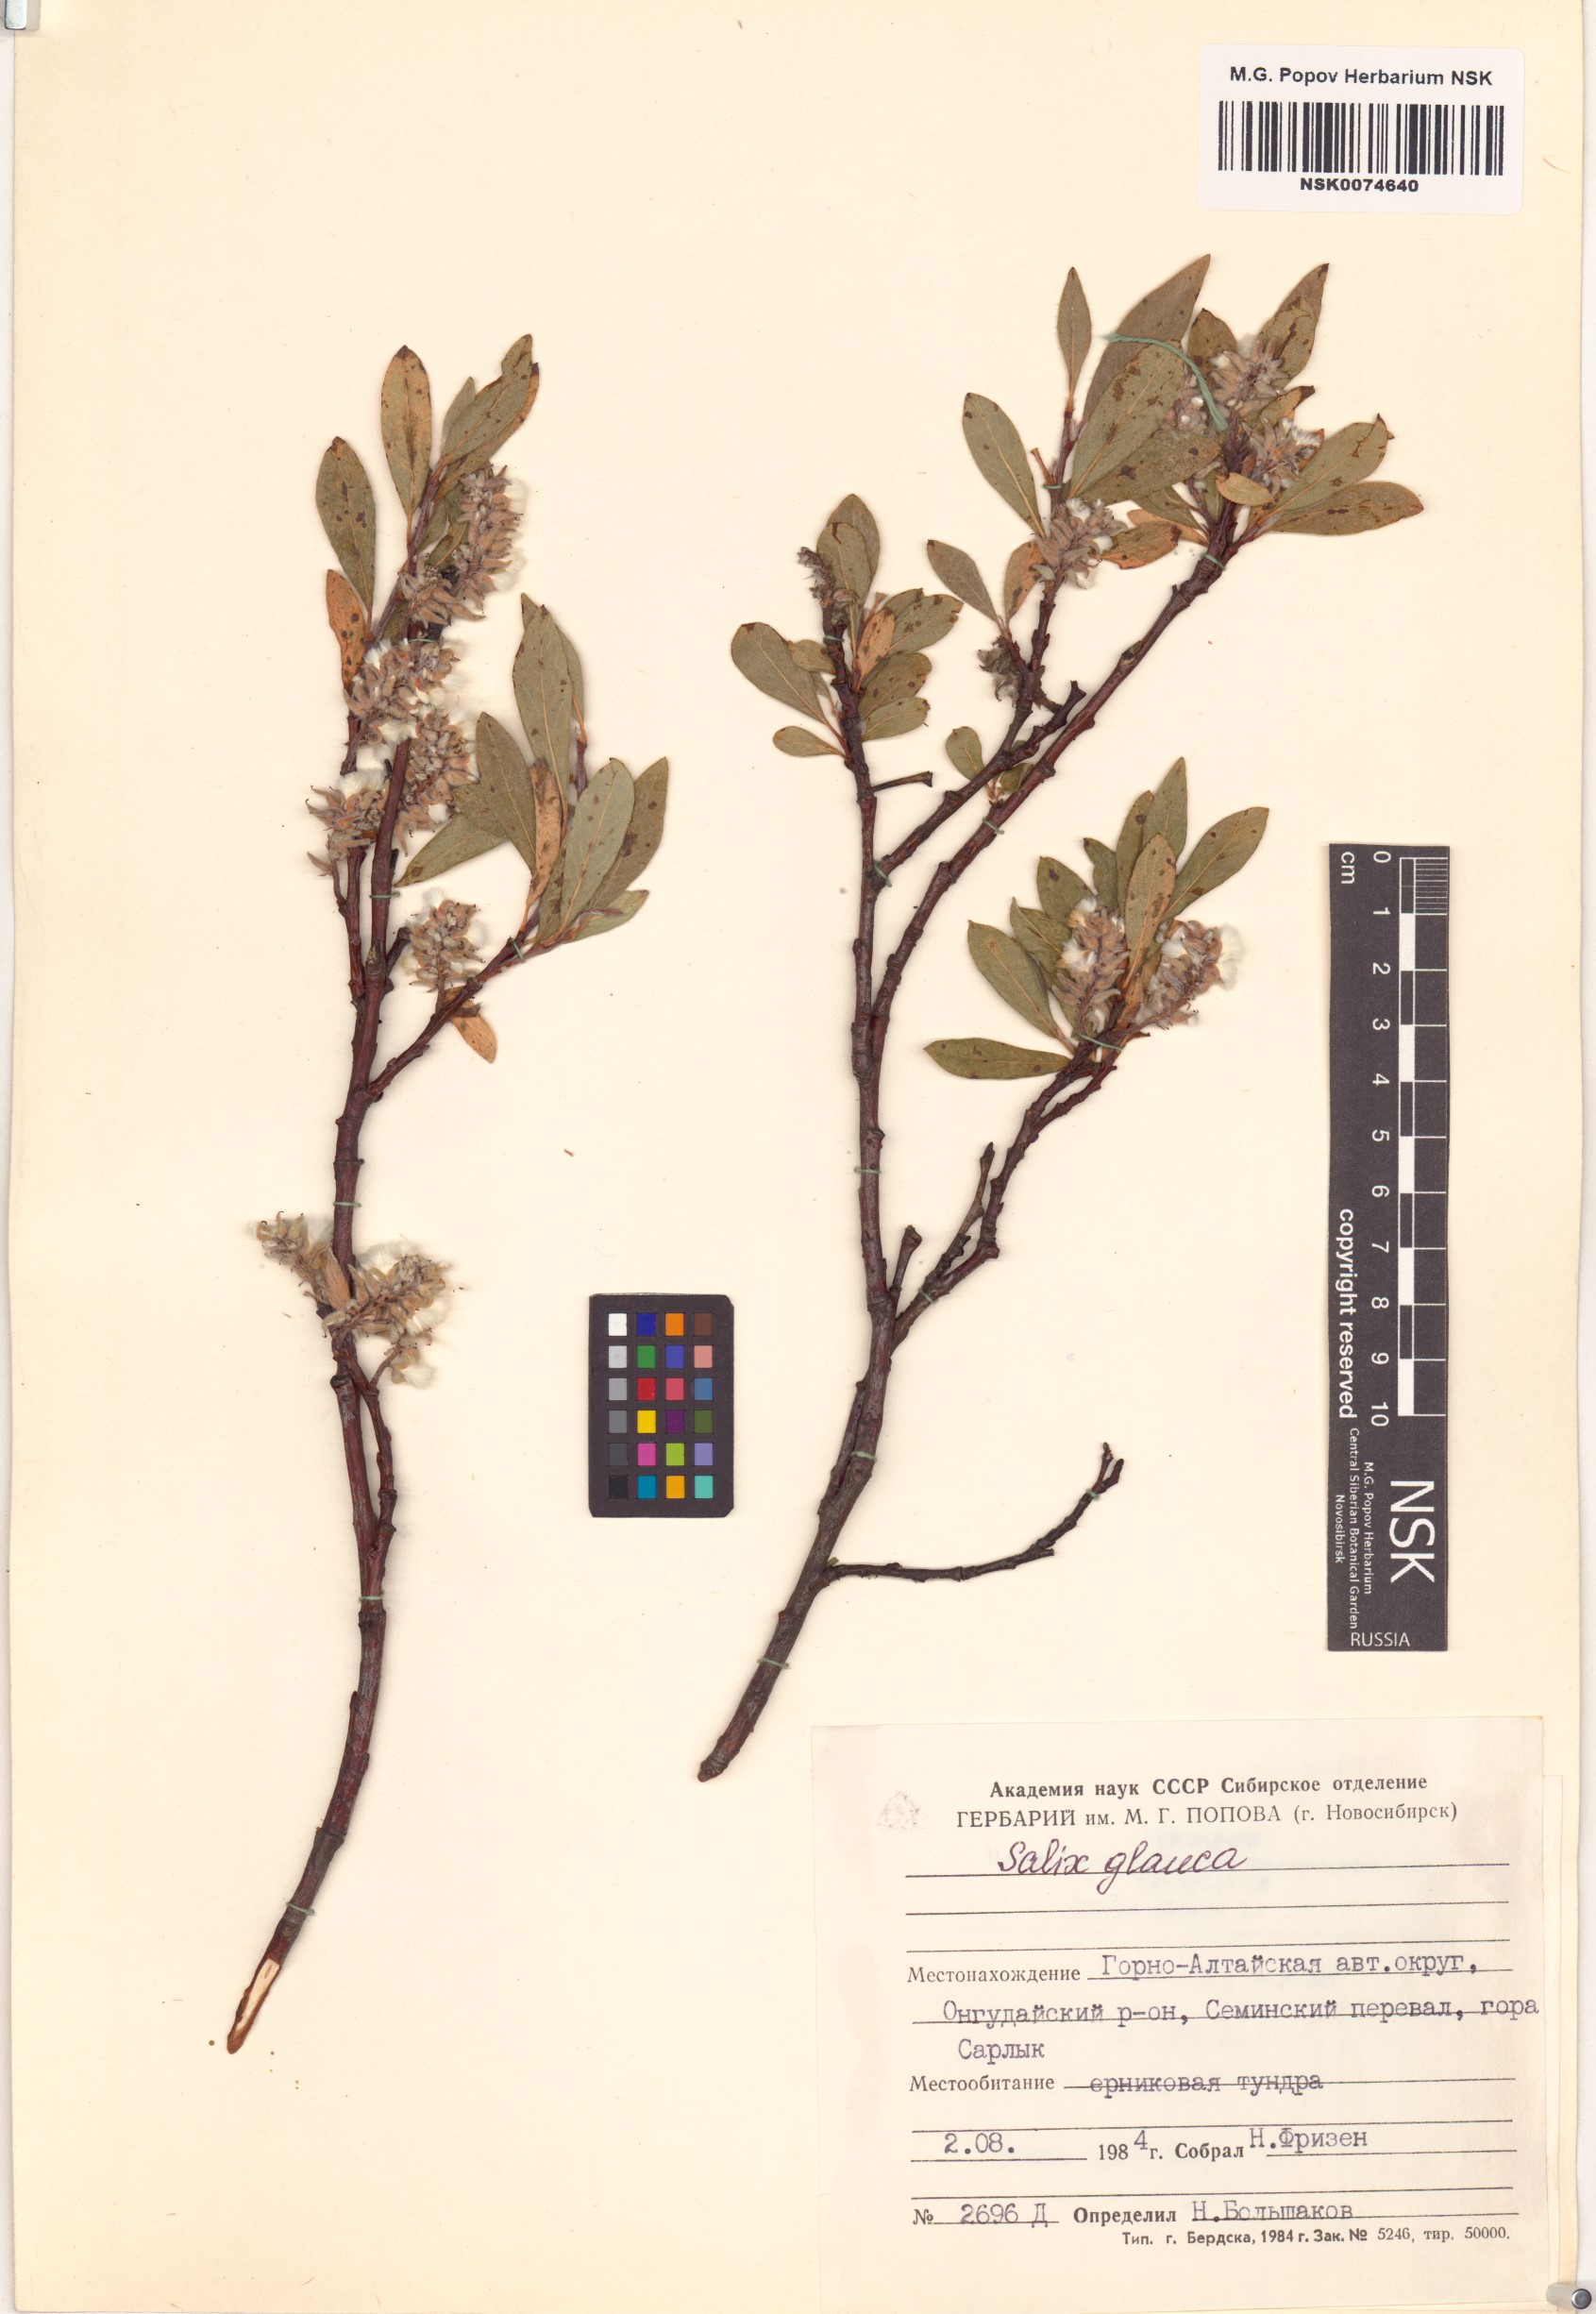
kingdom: Plantae
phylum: Tracheophyta
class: Magnoliopsida
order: Malpighiales
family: Salicaceae
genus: Salix
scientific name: Salix glauca
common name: Glaucous willow
